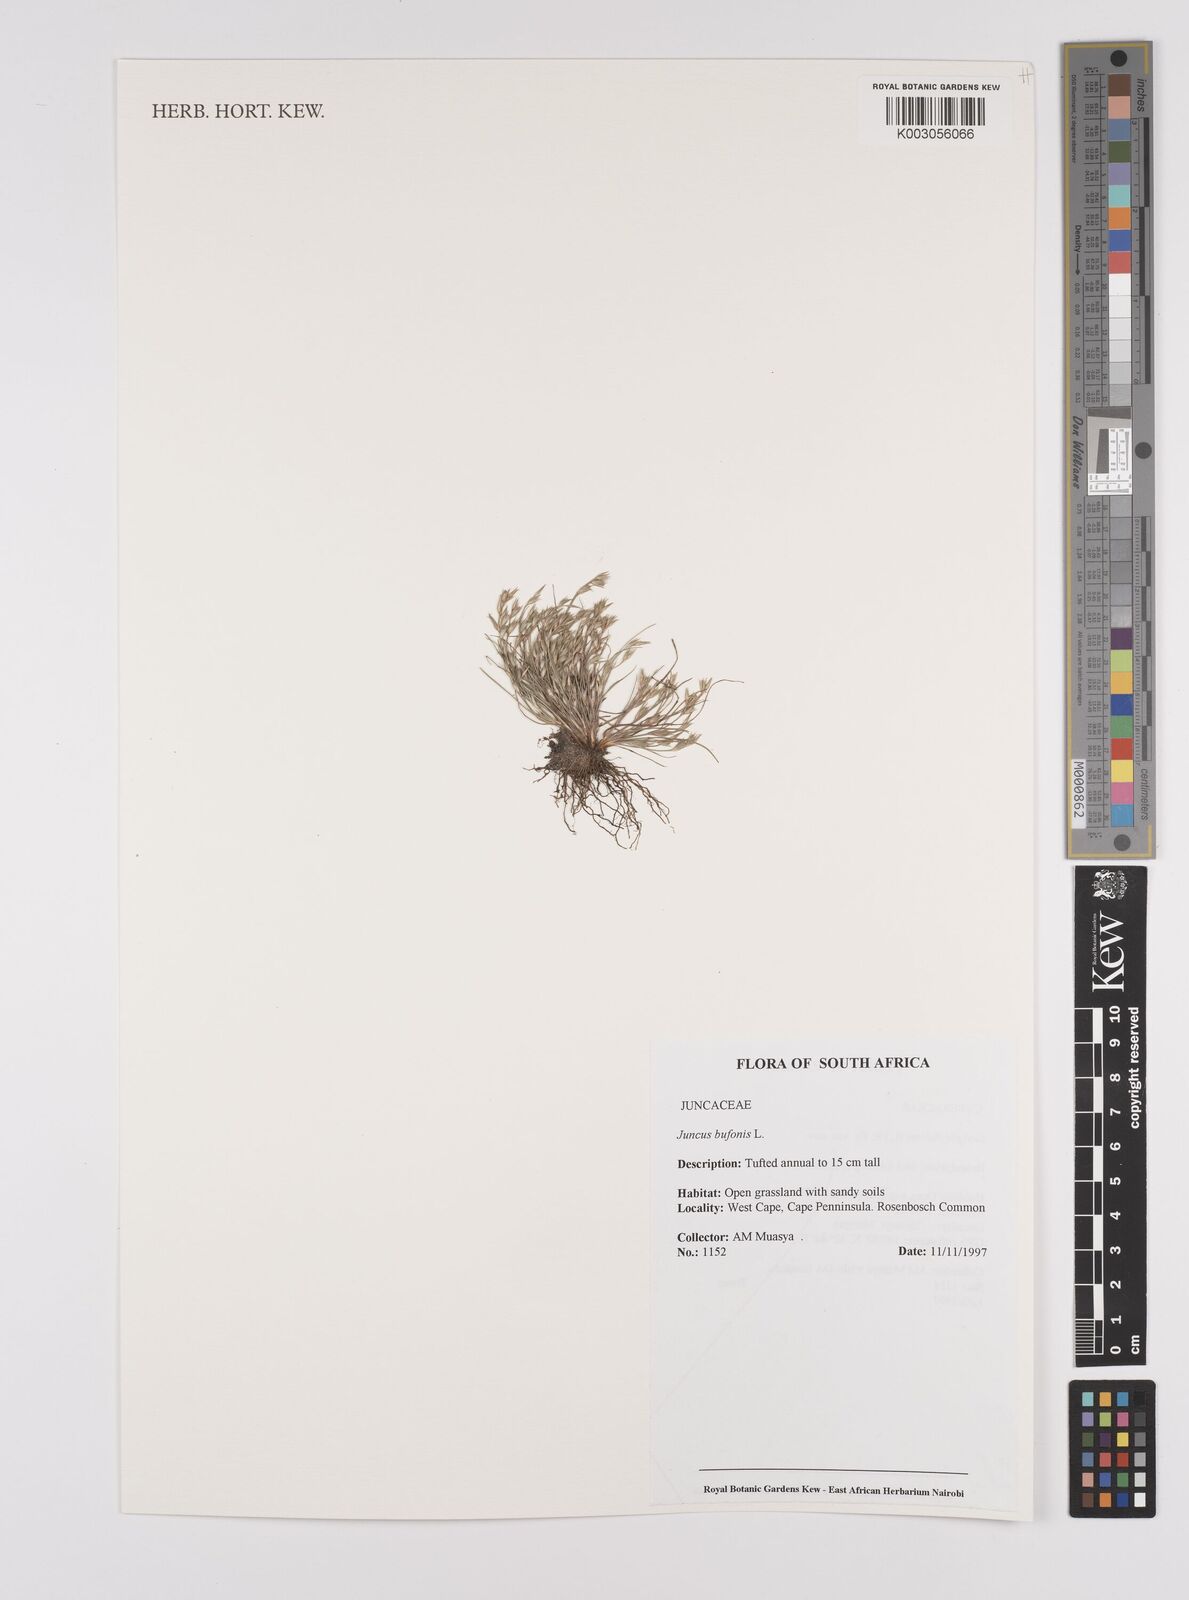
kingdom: Plantae
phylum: Tracheophyta
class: Liliopsida
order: Poales
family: Juncaceae
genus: Juncus
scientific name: Juncus bufonius
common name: Toad rush
